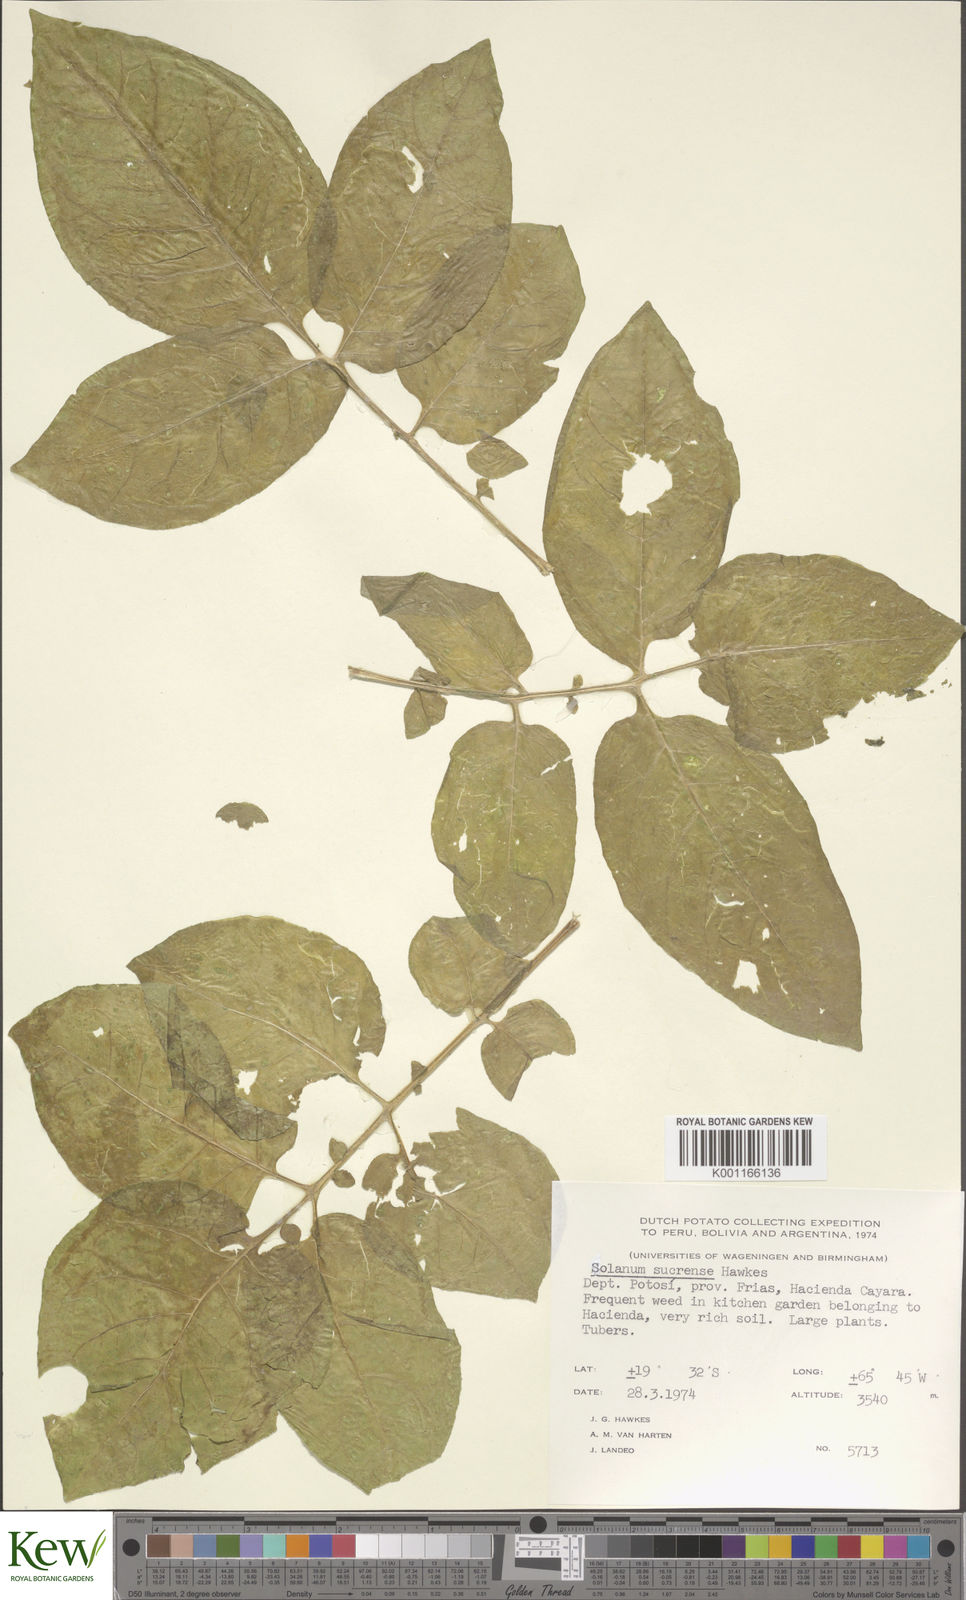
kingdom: Plantae
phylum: Tracheophyta
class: Magnoliopsida
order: Solanales
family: Solanaceae
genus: Solanum
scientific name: Solanum brevicaule
